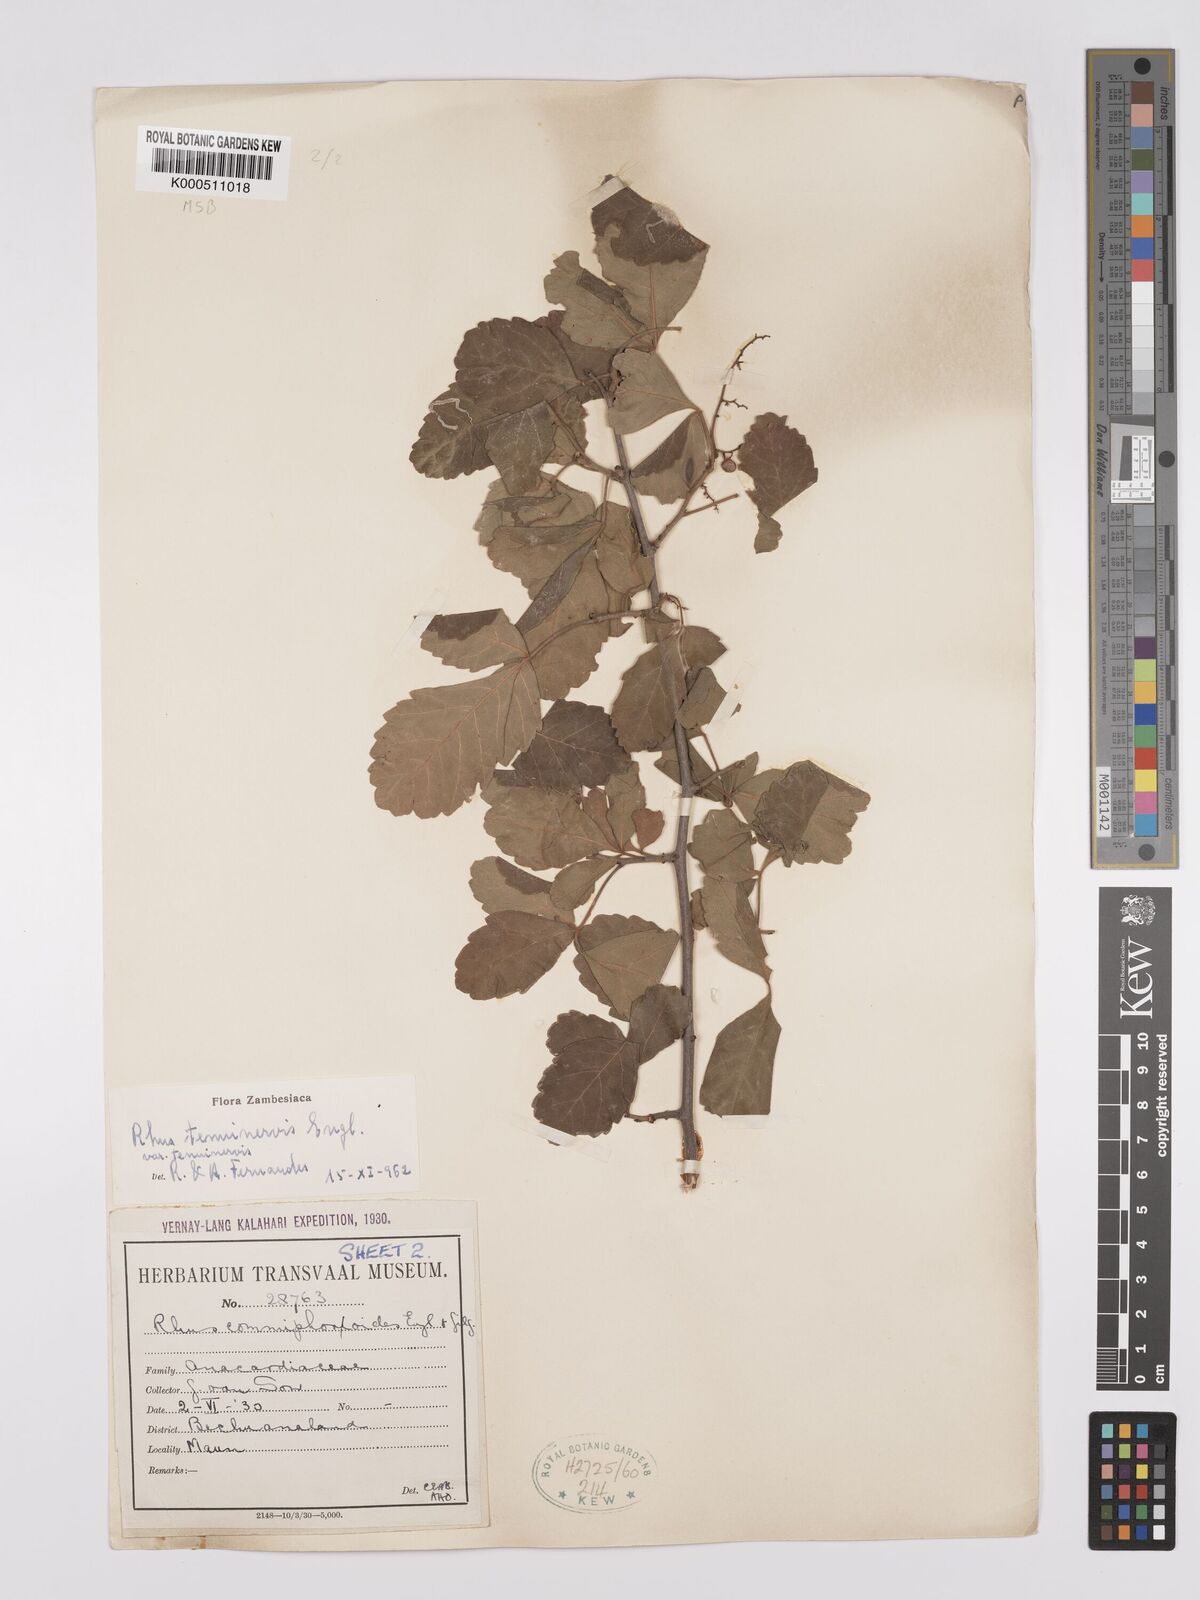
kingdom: Plantae
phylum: Tracheophyta
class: Magnoliopsida
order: Sapindales
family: Anacardiaceae
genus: Searsia
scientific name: Searsia tenuinervis
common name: Hyaena taaibos
